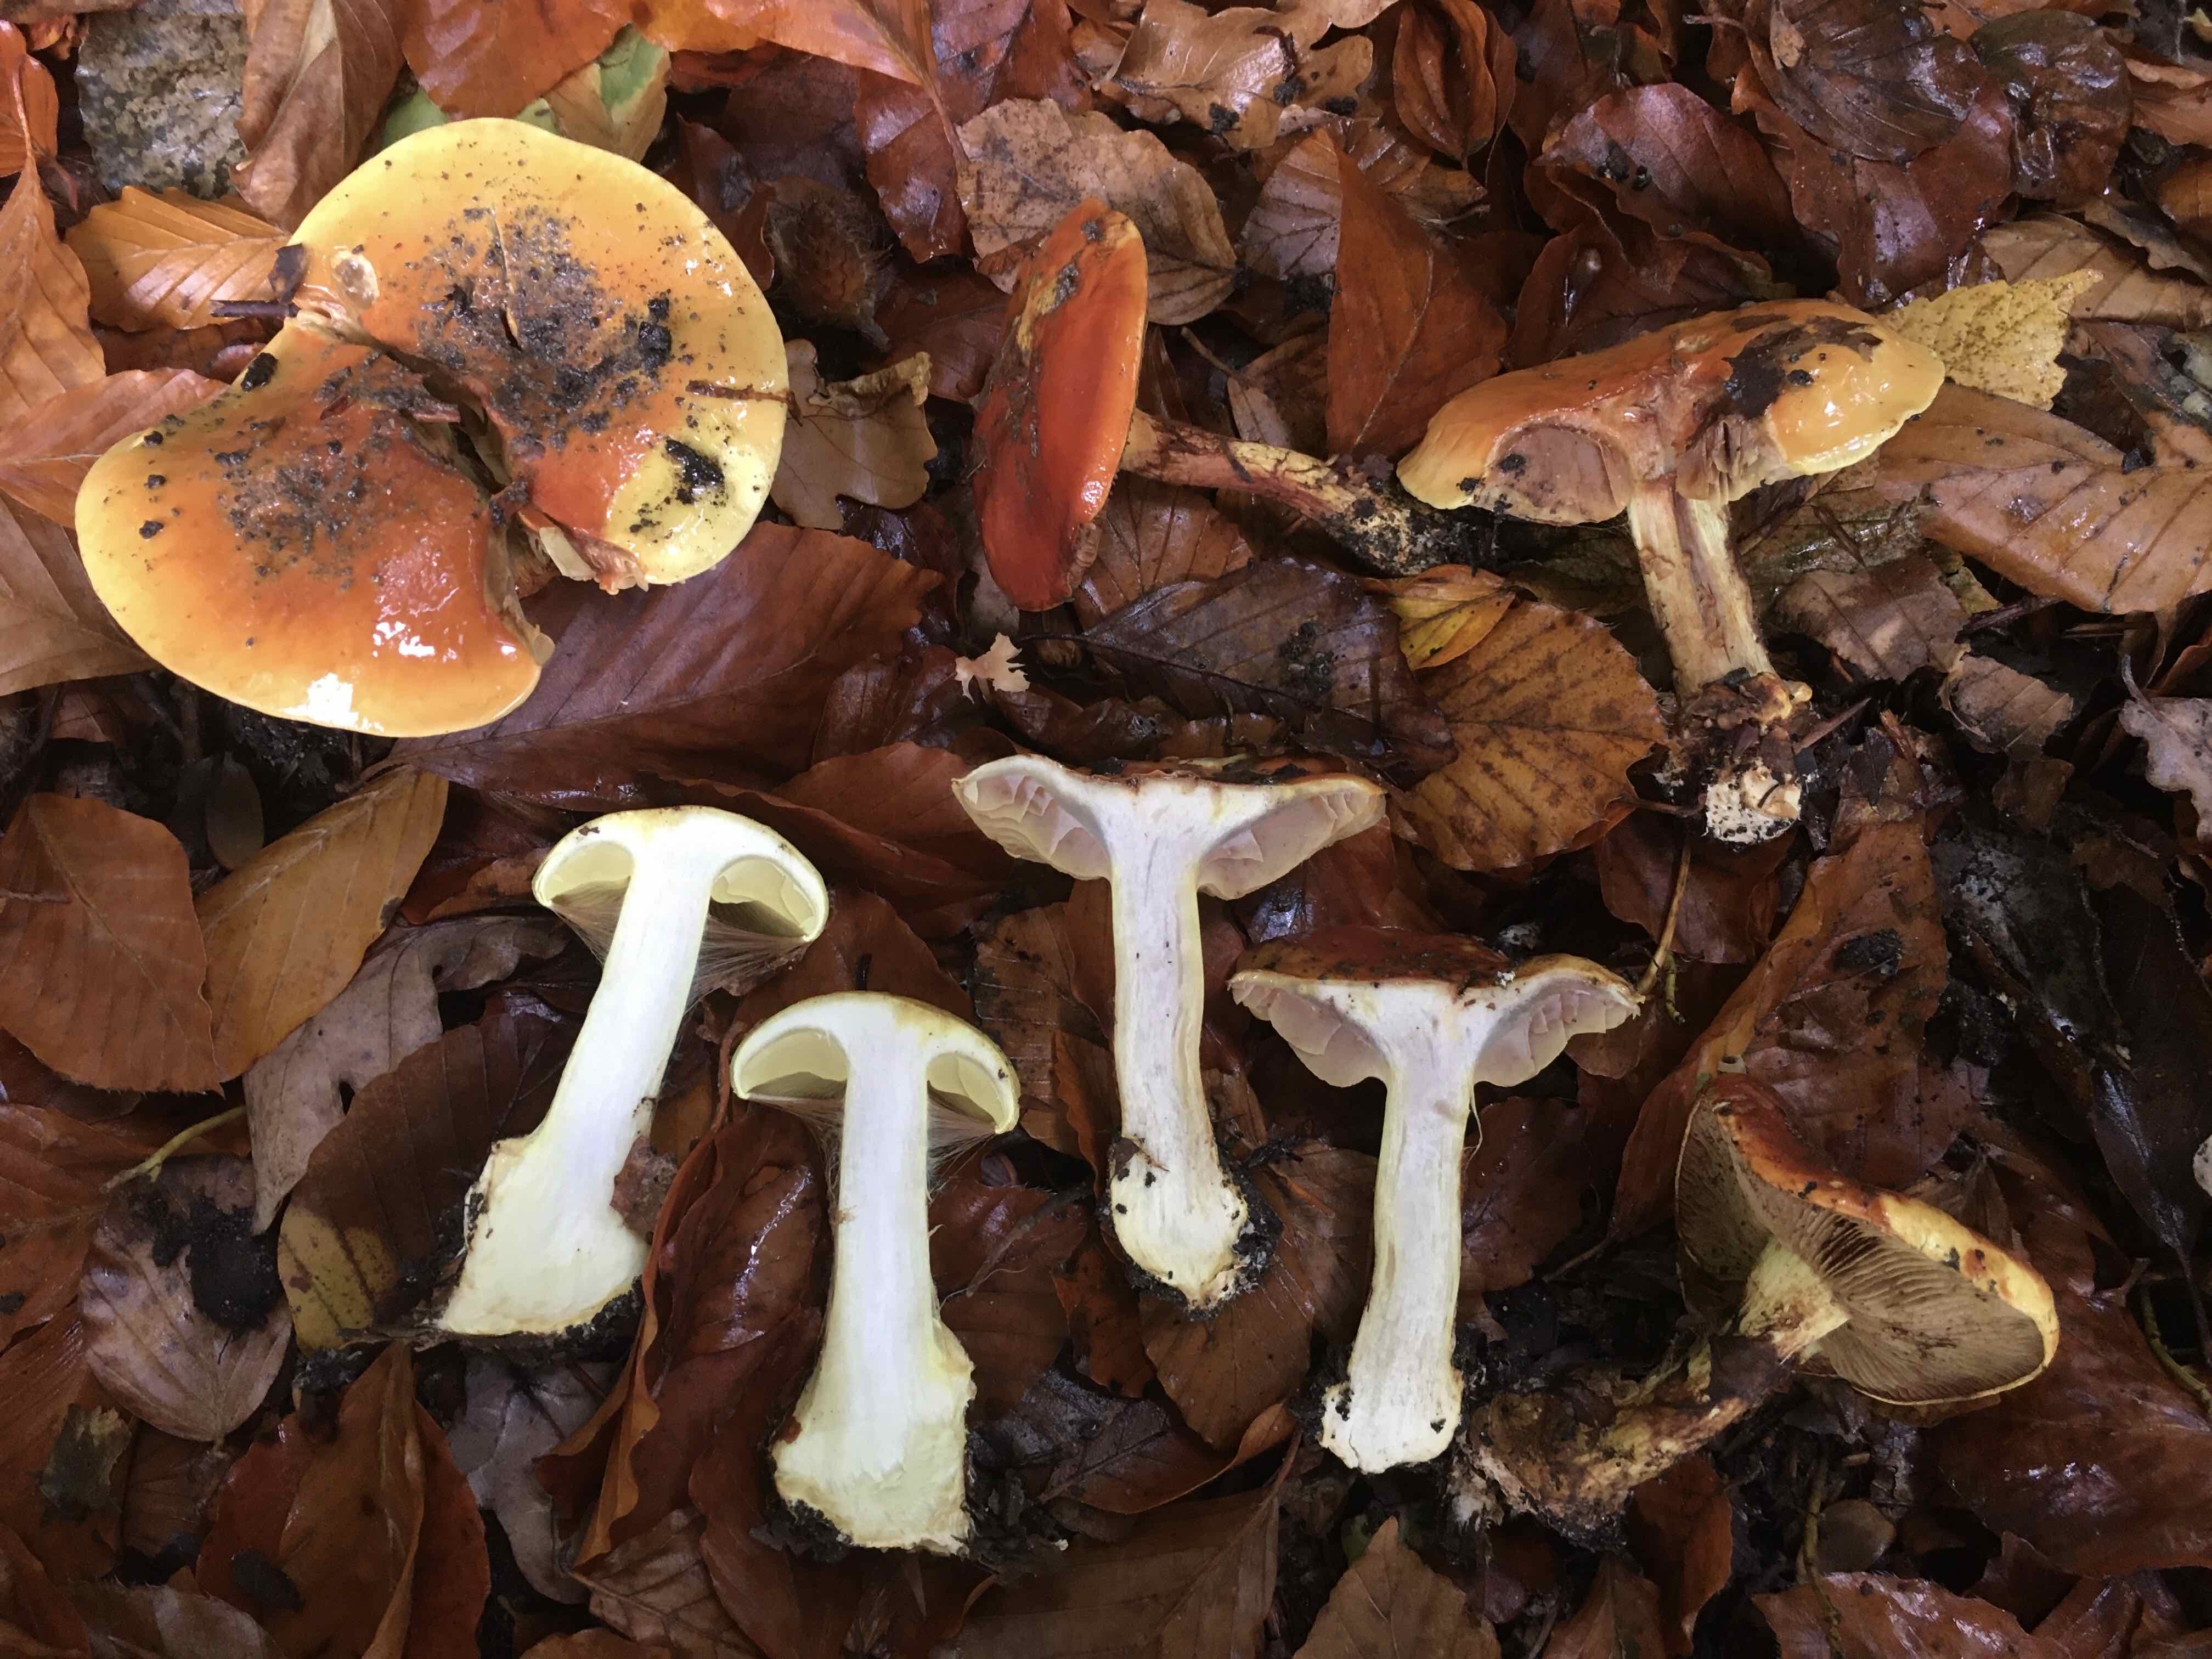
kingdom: Fungi
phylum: Basidiomycota
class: Agaricomycetes
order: Agaricales
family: Cortinariaceae
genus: Calonarius
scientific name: Calonarius elegantissimus
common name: orangegylden slørhat
